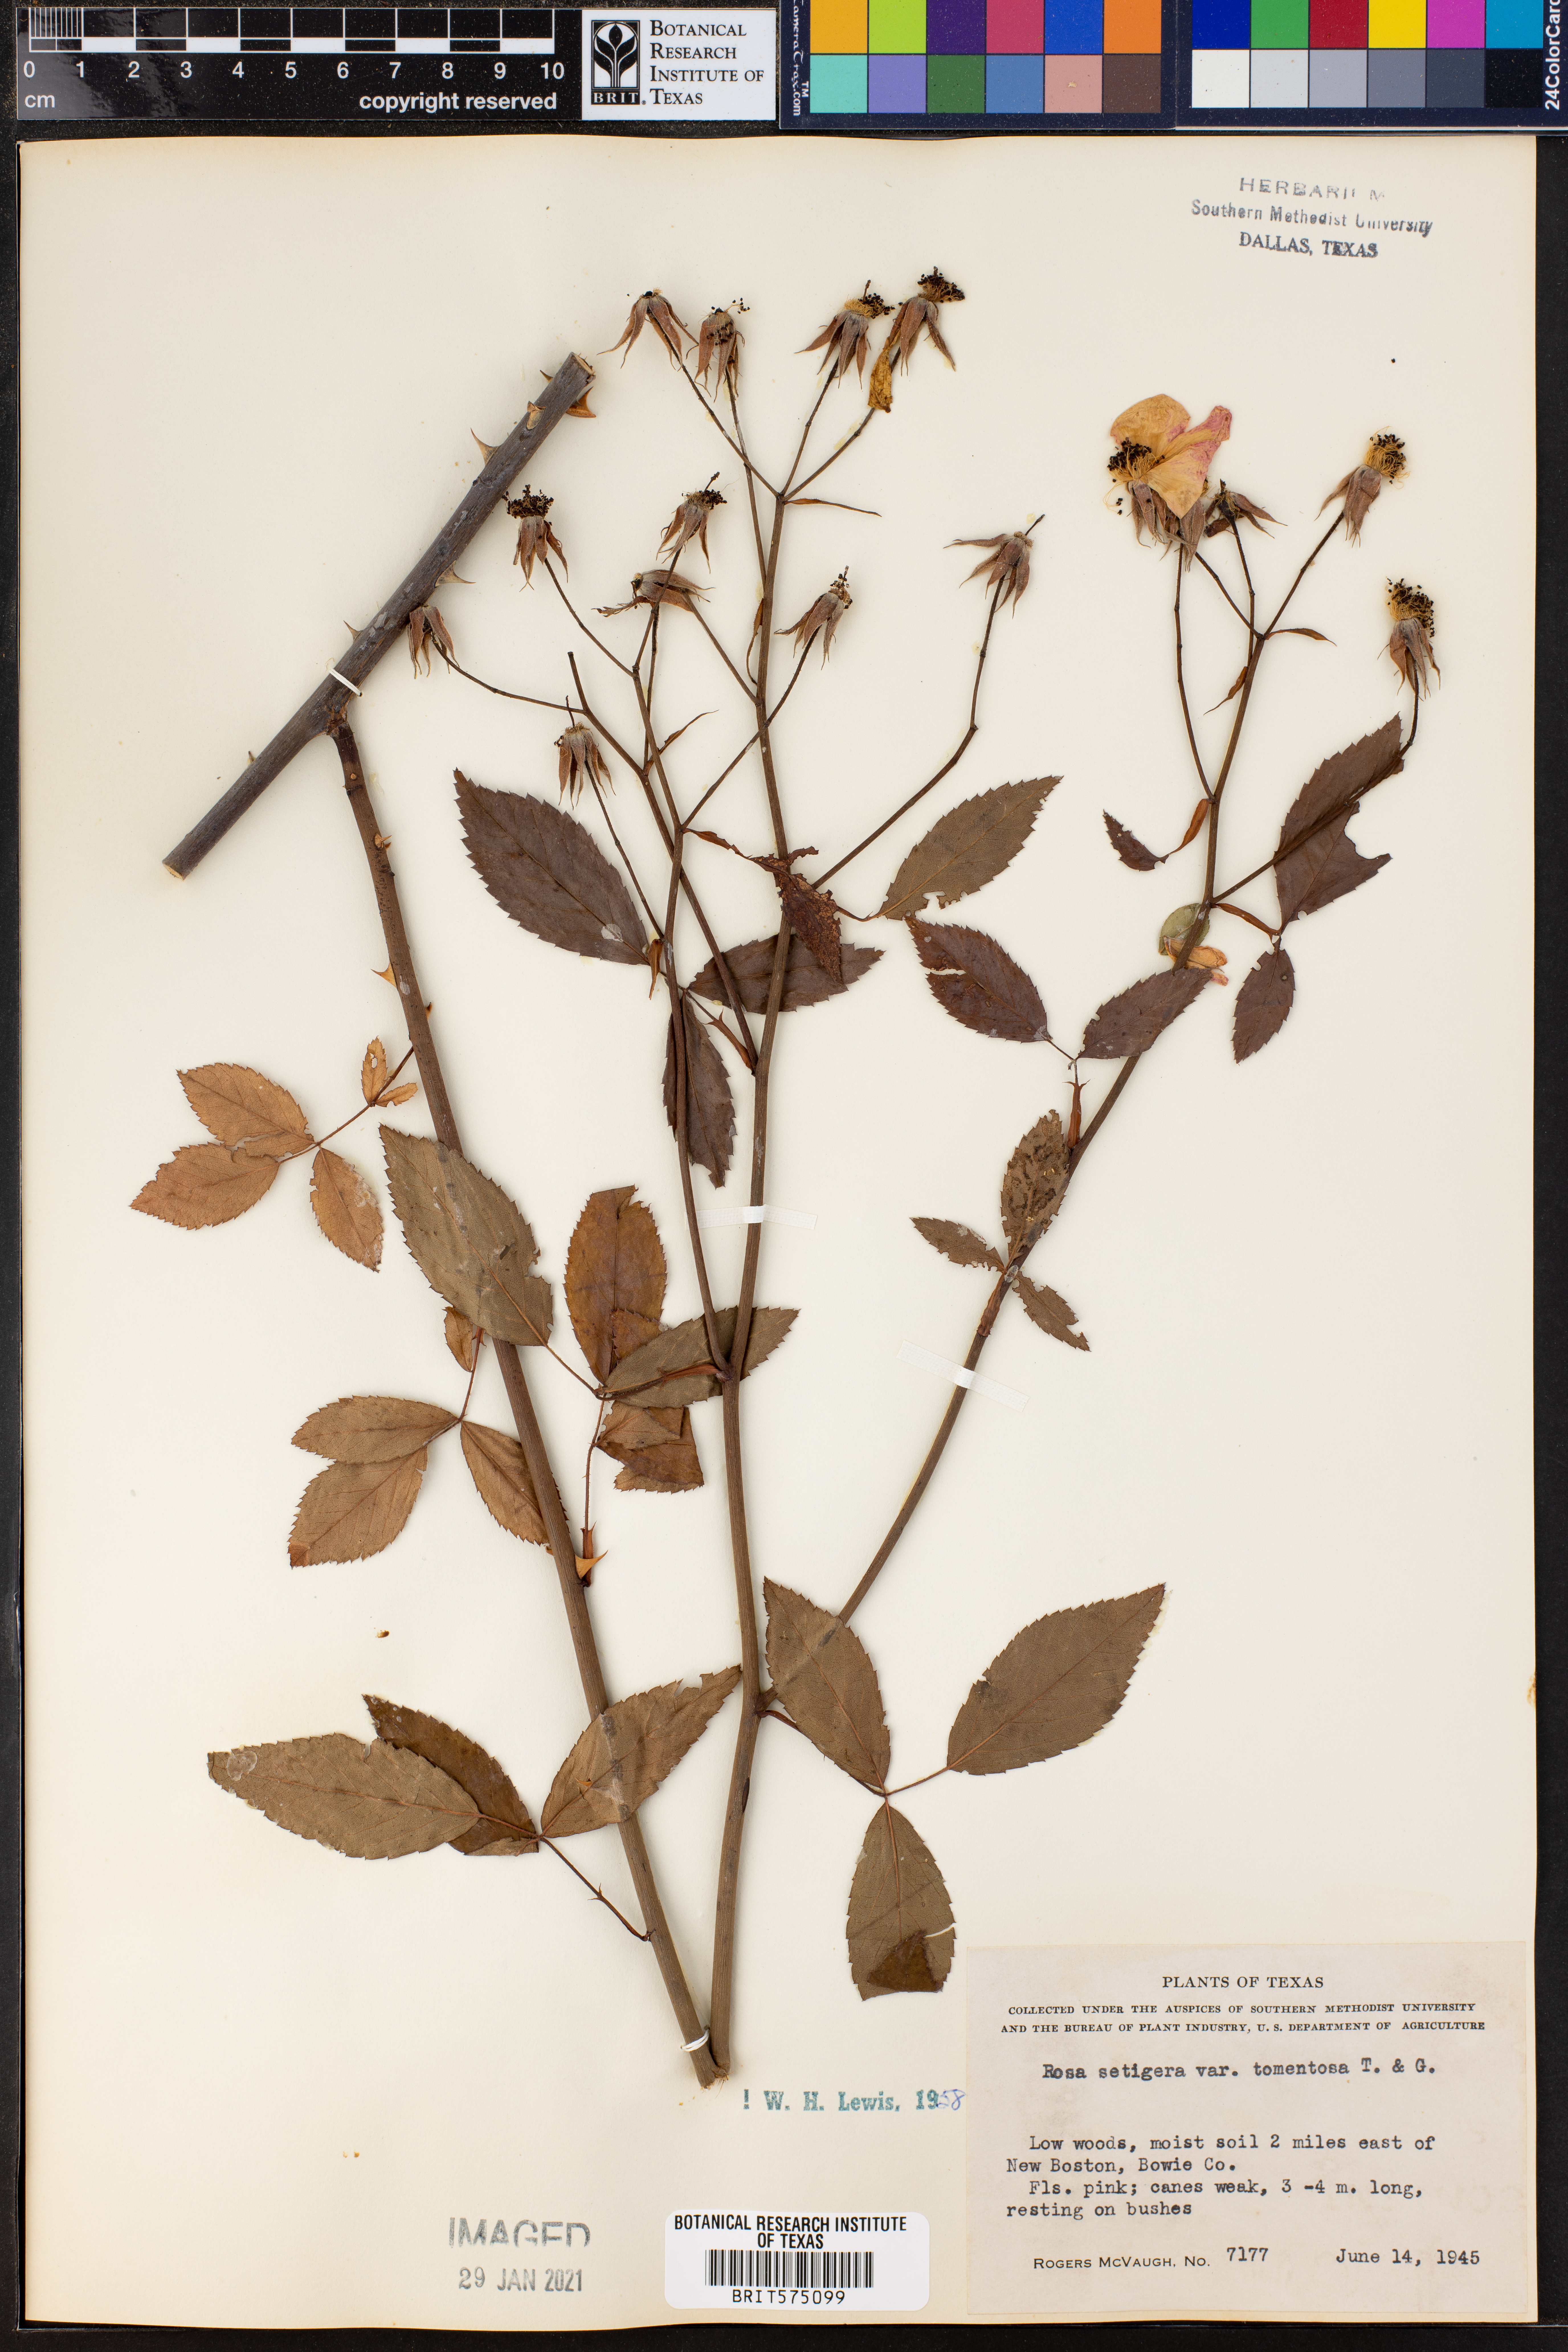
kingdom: Plantae
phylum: Tracheophyta
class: Magnoliopsida
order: Rosales
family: Rosaceae
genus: Rosa
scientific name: Rosa setigera
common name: Prairie rose
